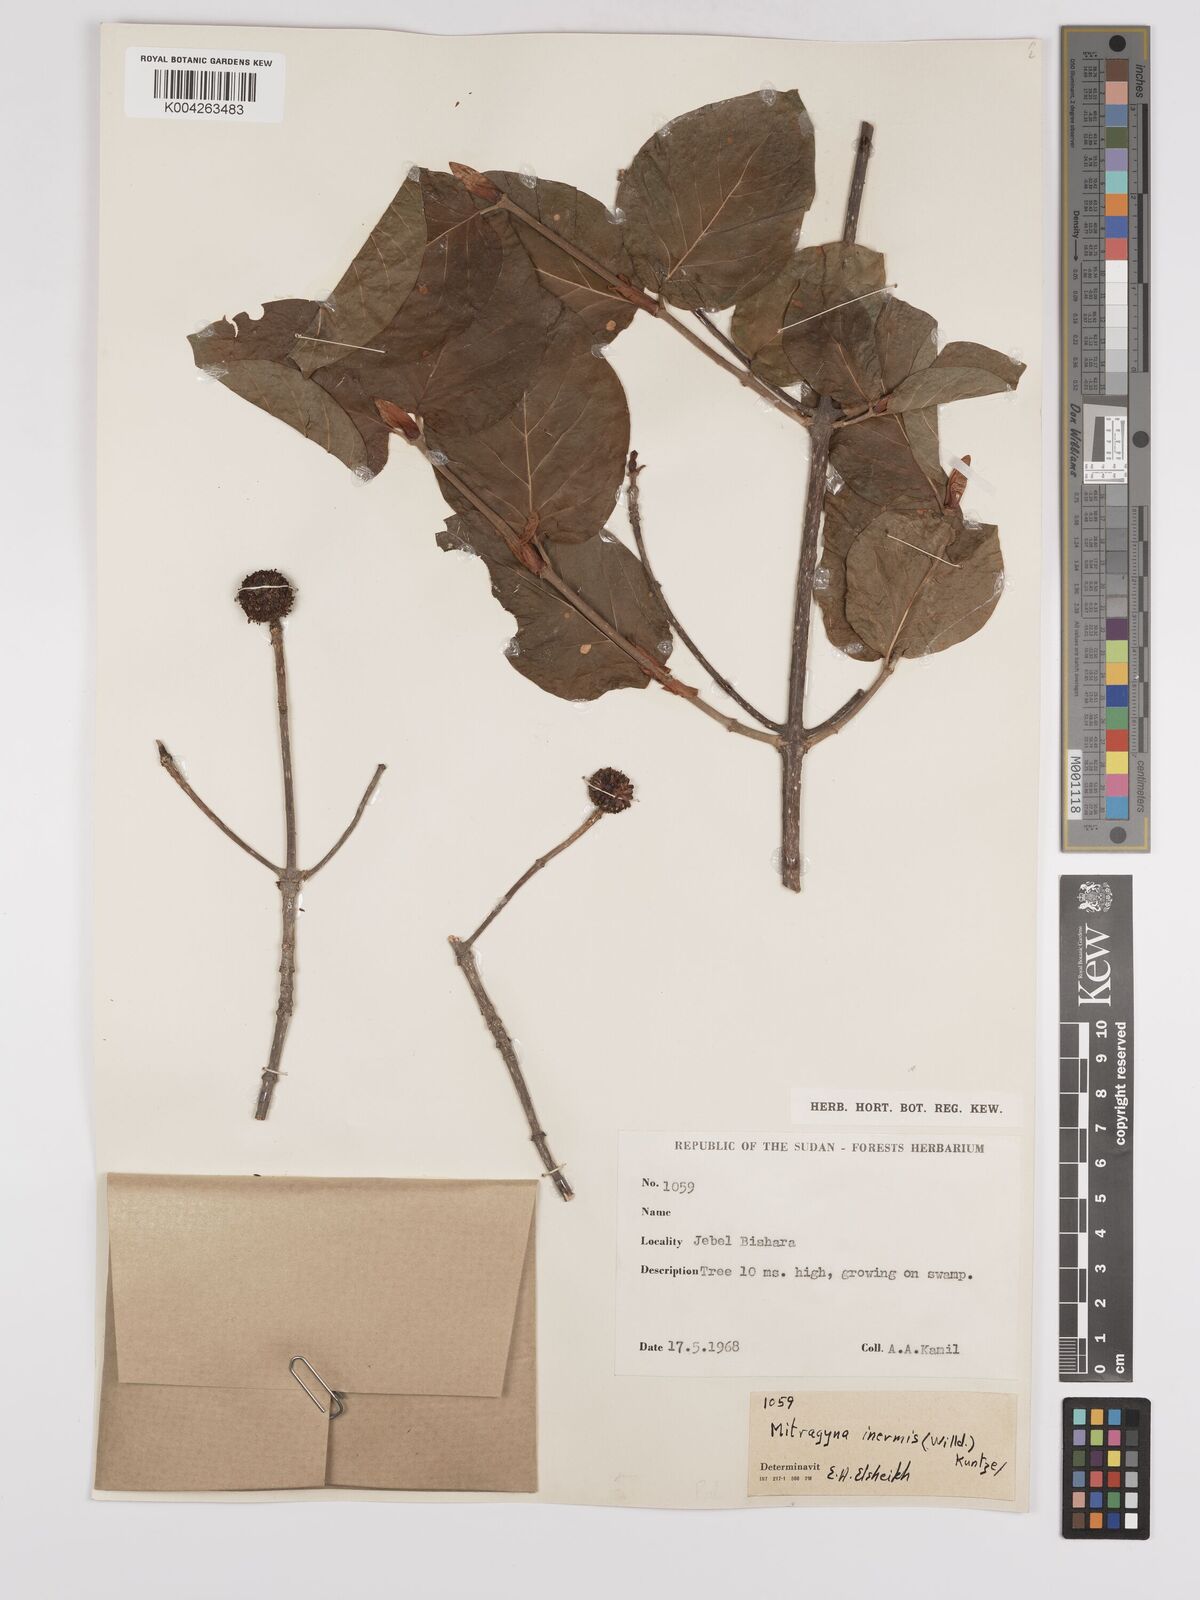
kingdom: Plantae
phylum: Tracheophyta
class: Magnoliopsida
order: Gentianales
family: Rubiaceae
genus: Mitragyna
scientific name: Mitragyna inermis
